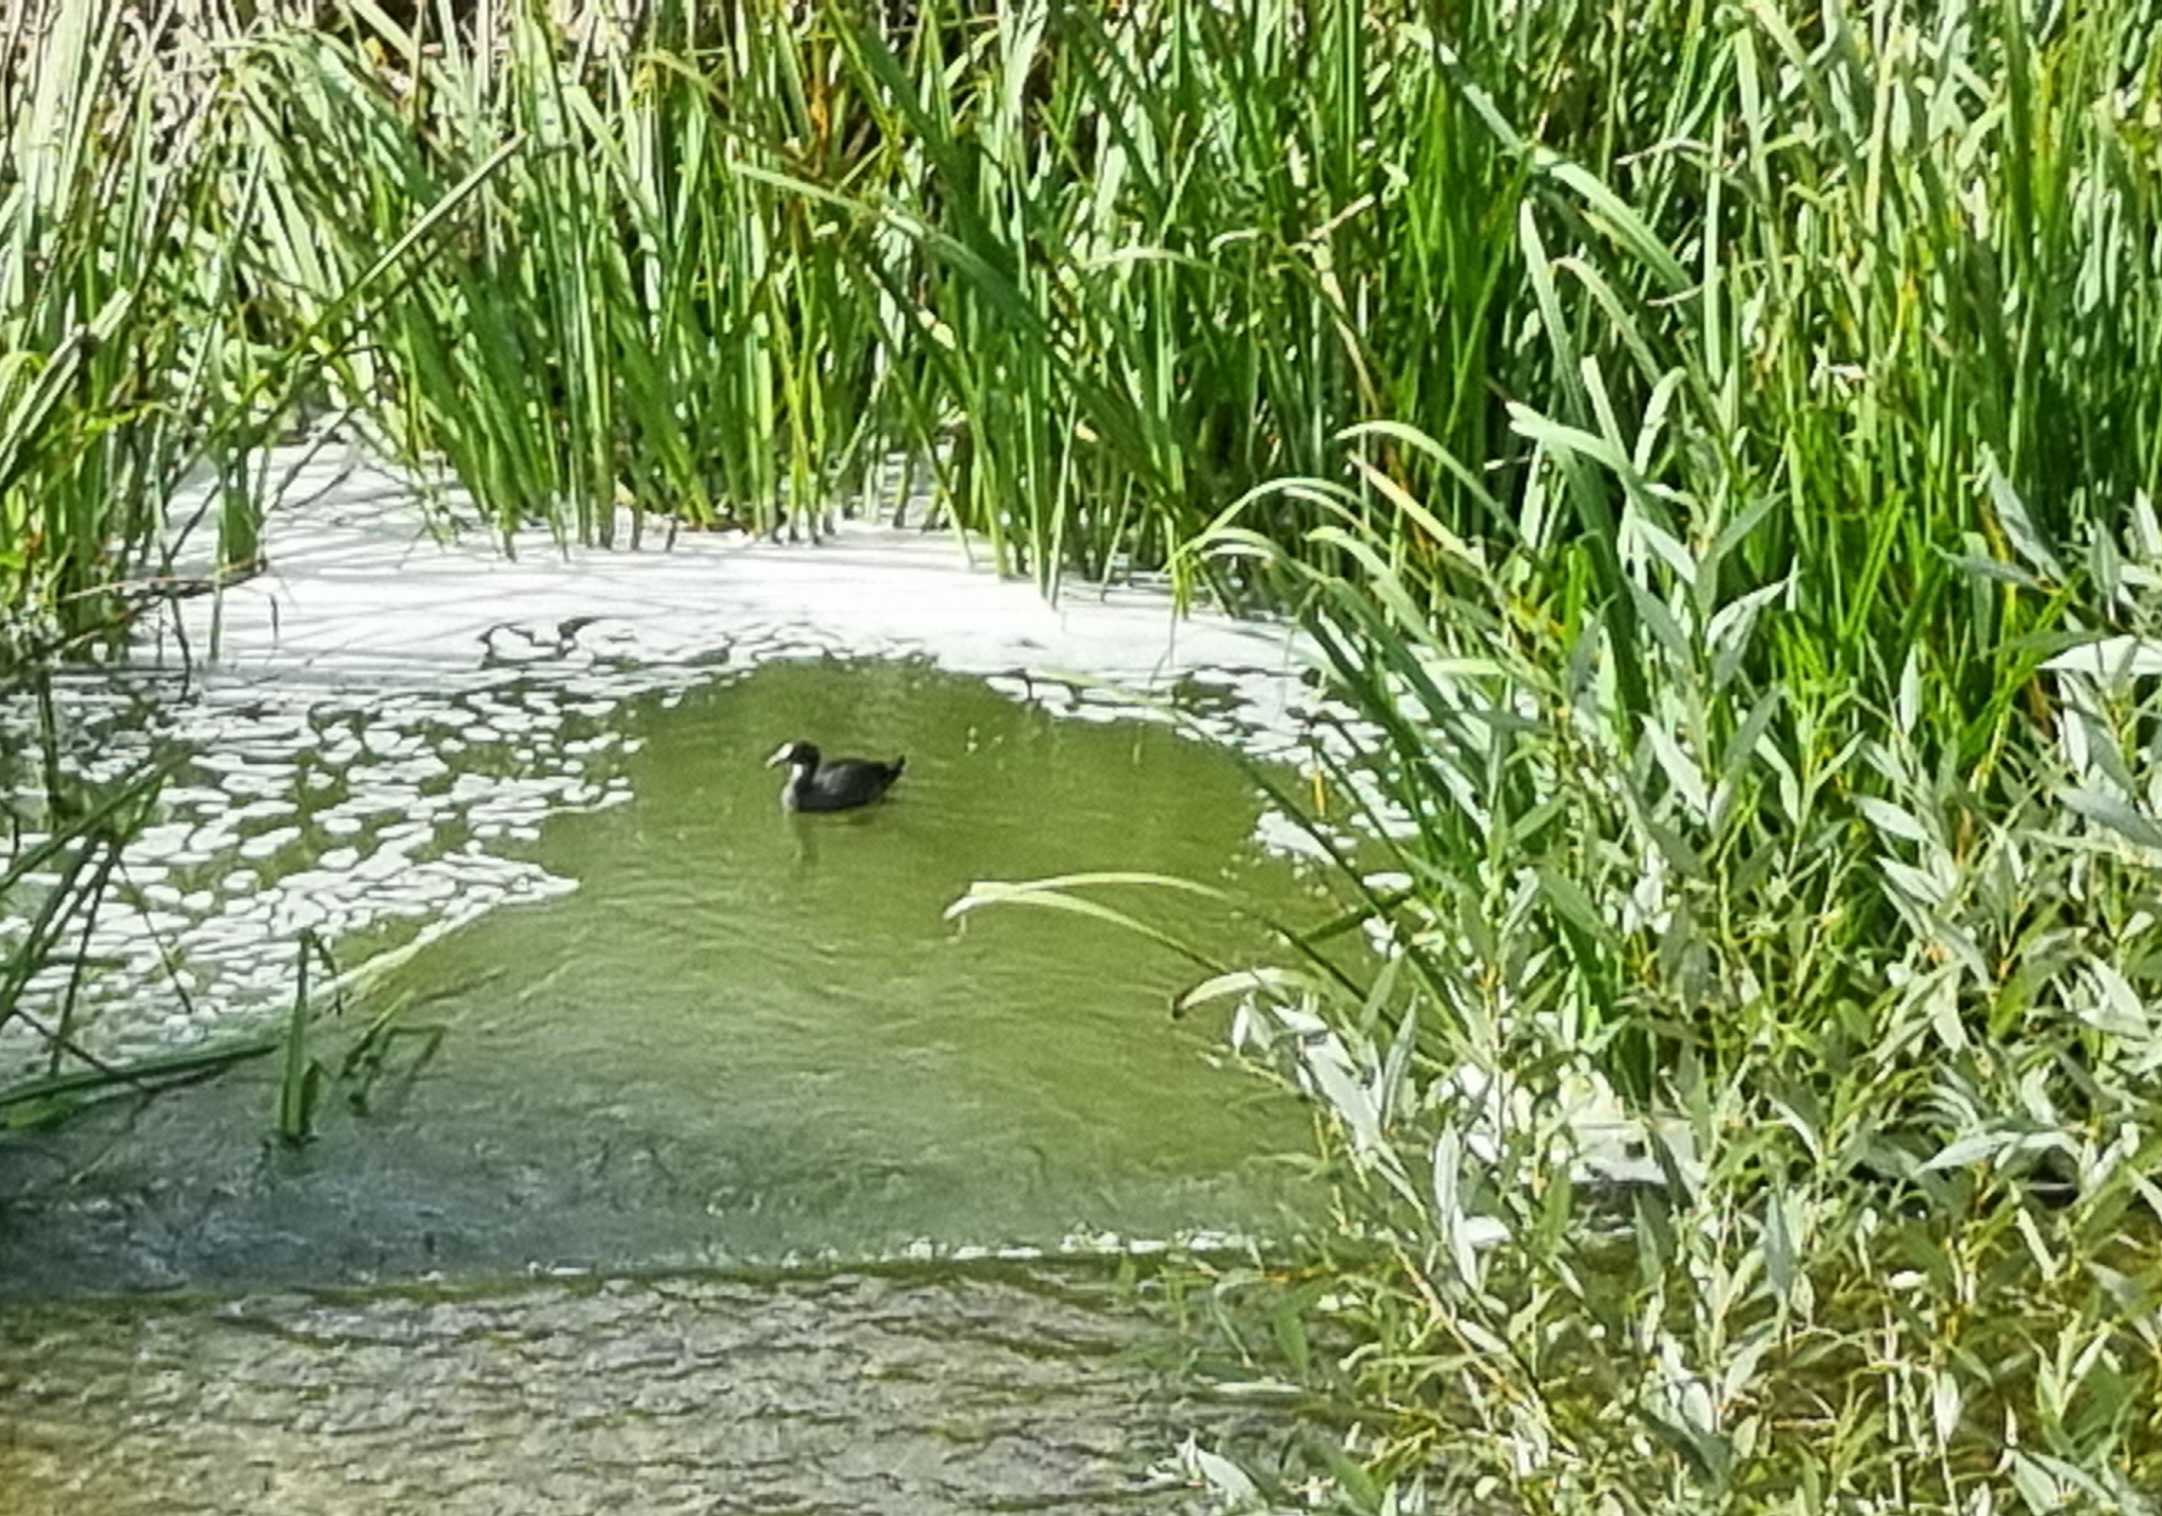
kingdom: Animalia
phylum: Chordata
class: Aves
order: Gruiformes
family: Rallidae
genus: Fulica
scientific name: Fulica atra
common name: Blishøne
